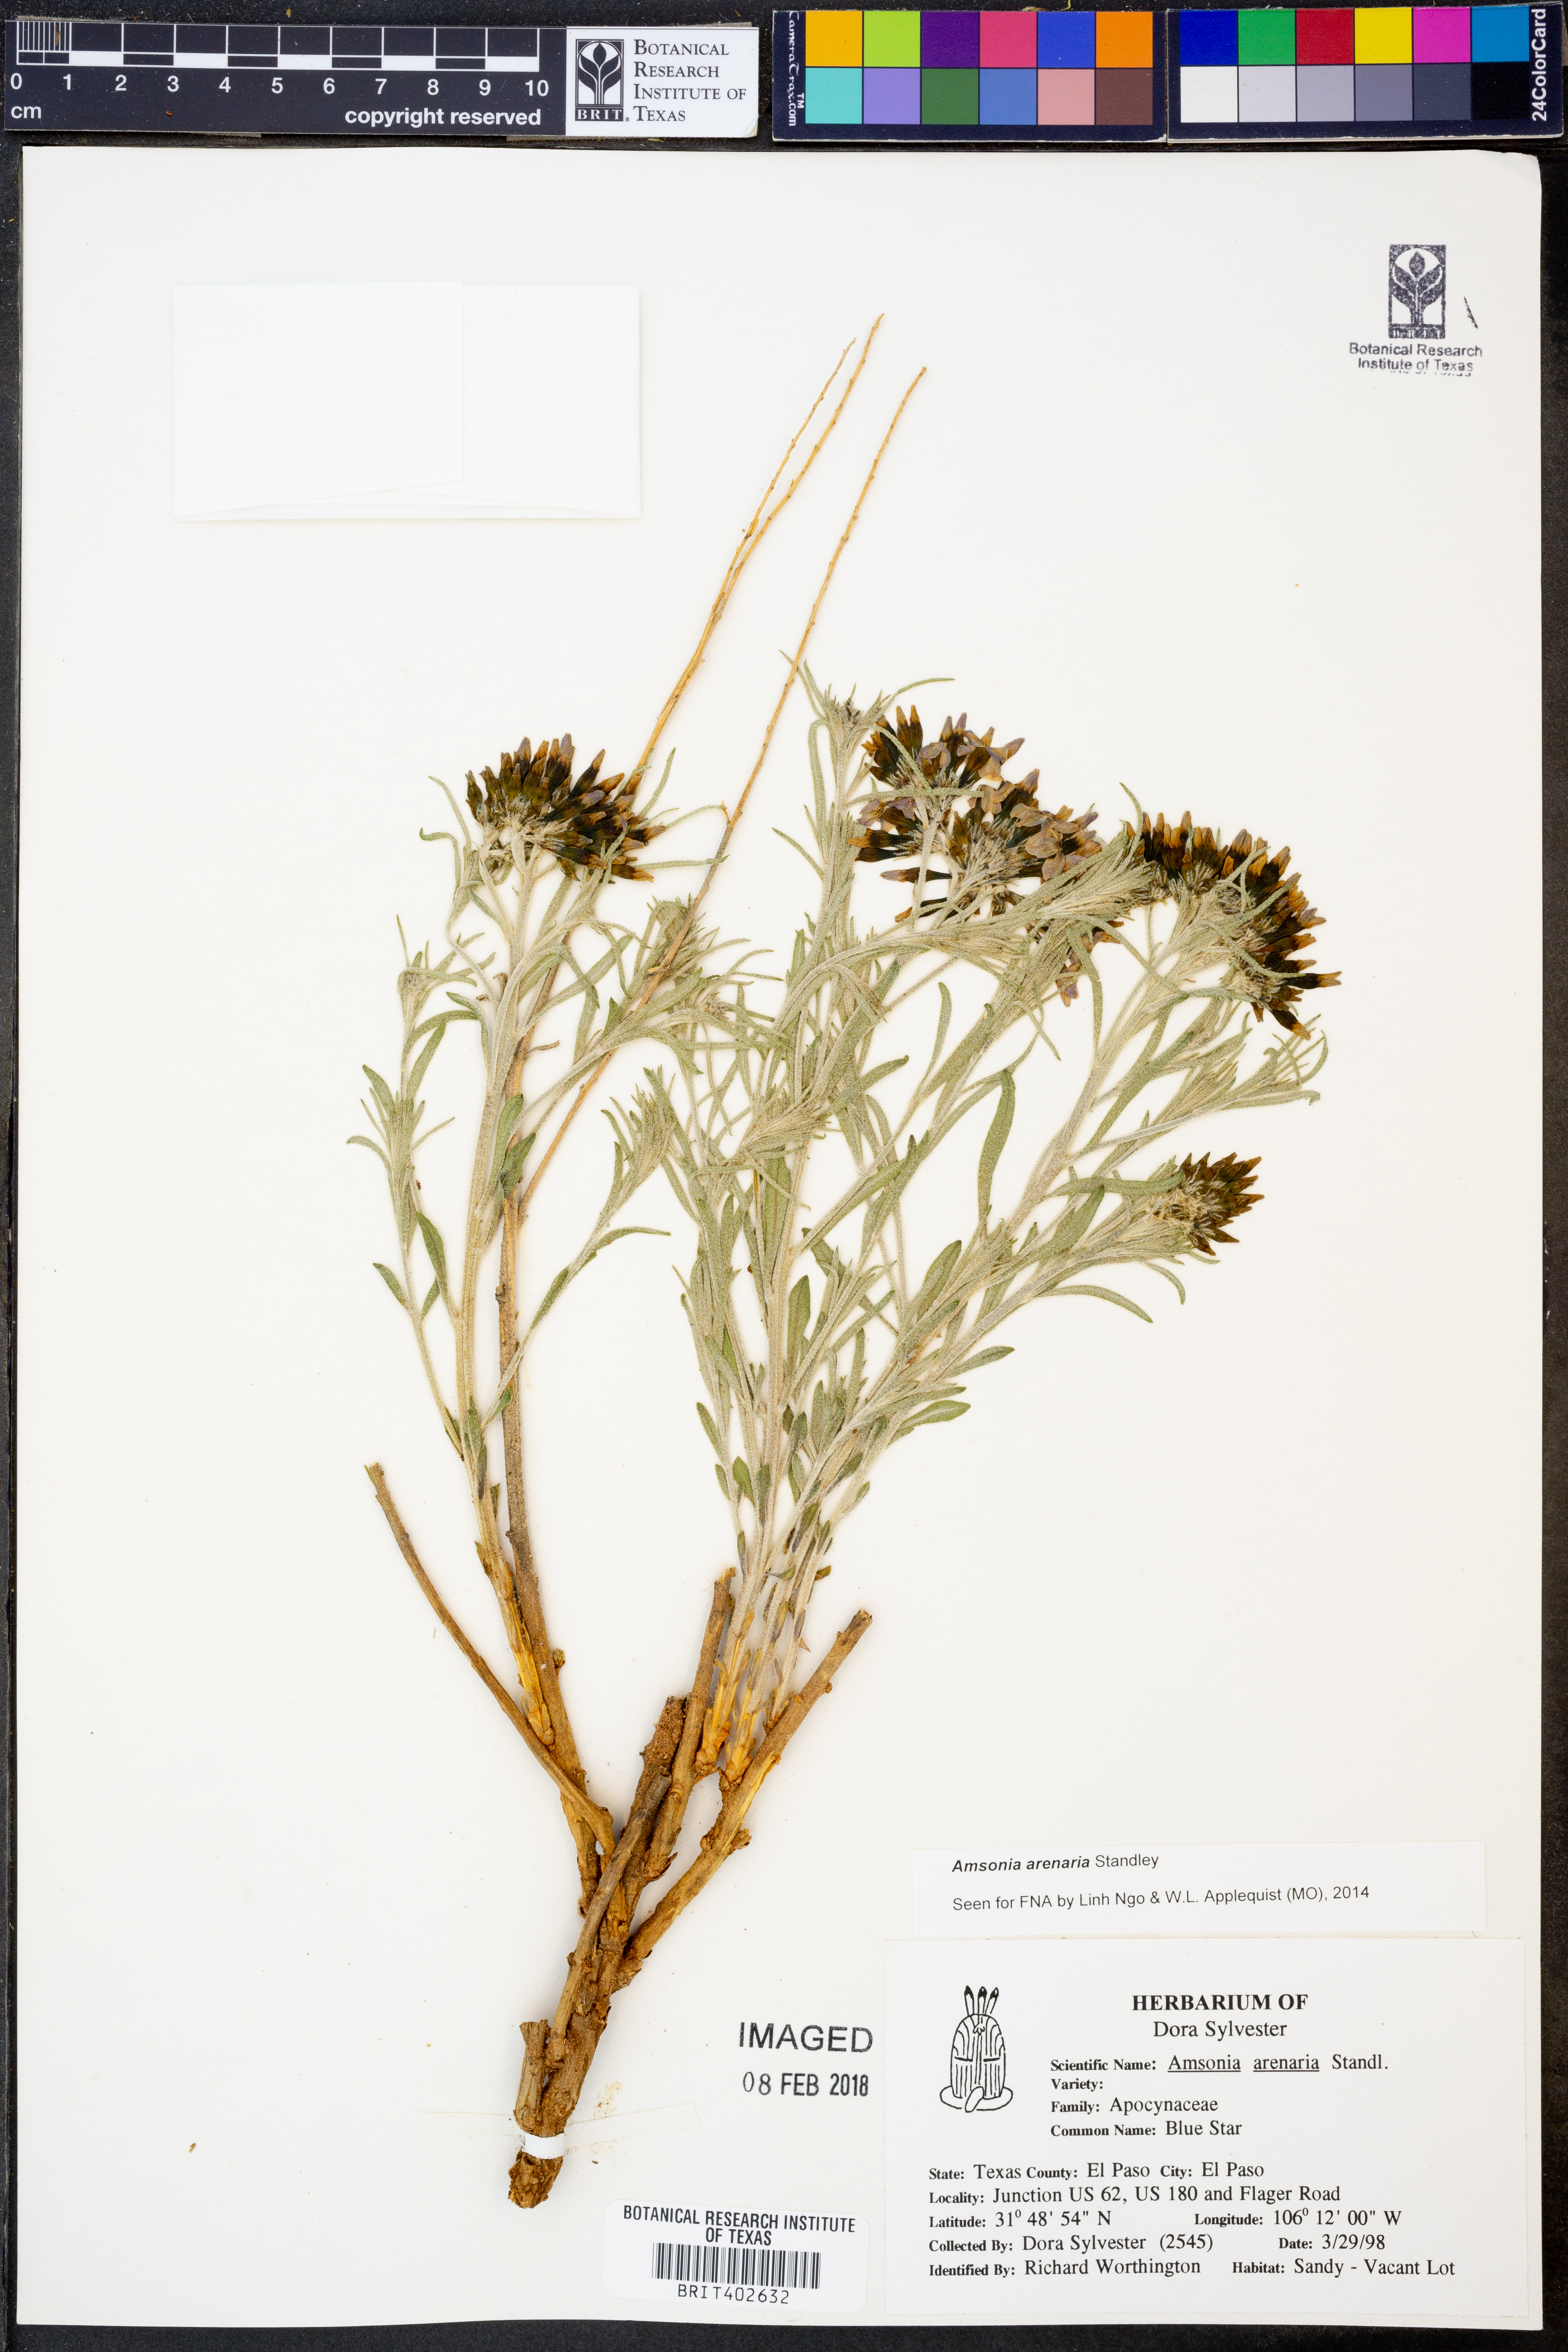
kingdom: Plantae
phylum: Tracheophyta
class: Magnoliopsida
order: Gentianales
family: Apocynaceae
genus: Amsonia
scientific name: Amsonia tomentosa
